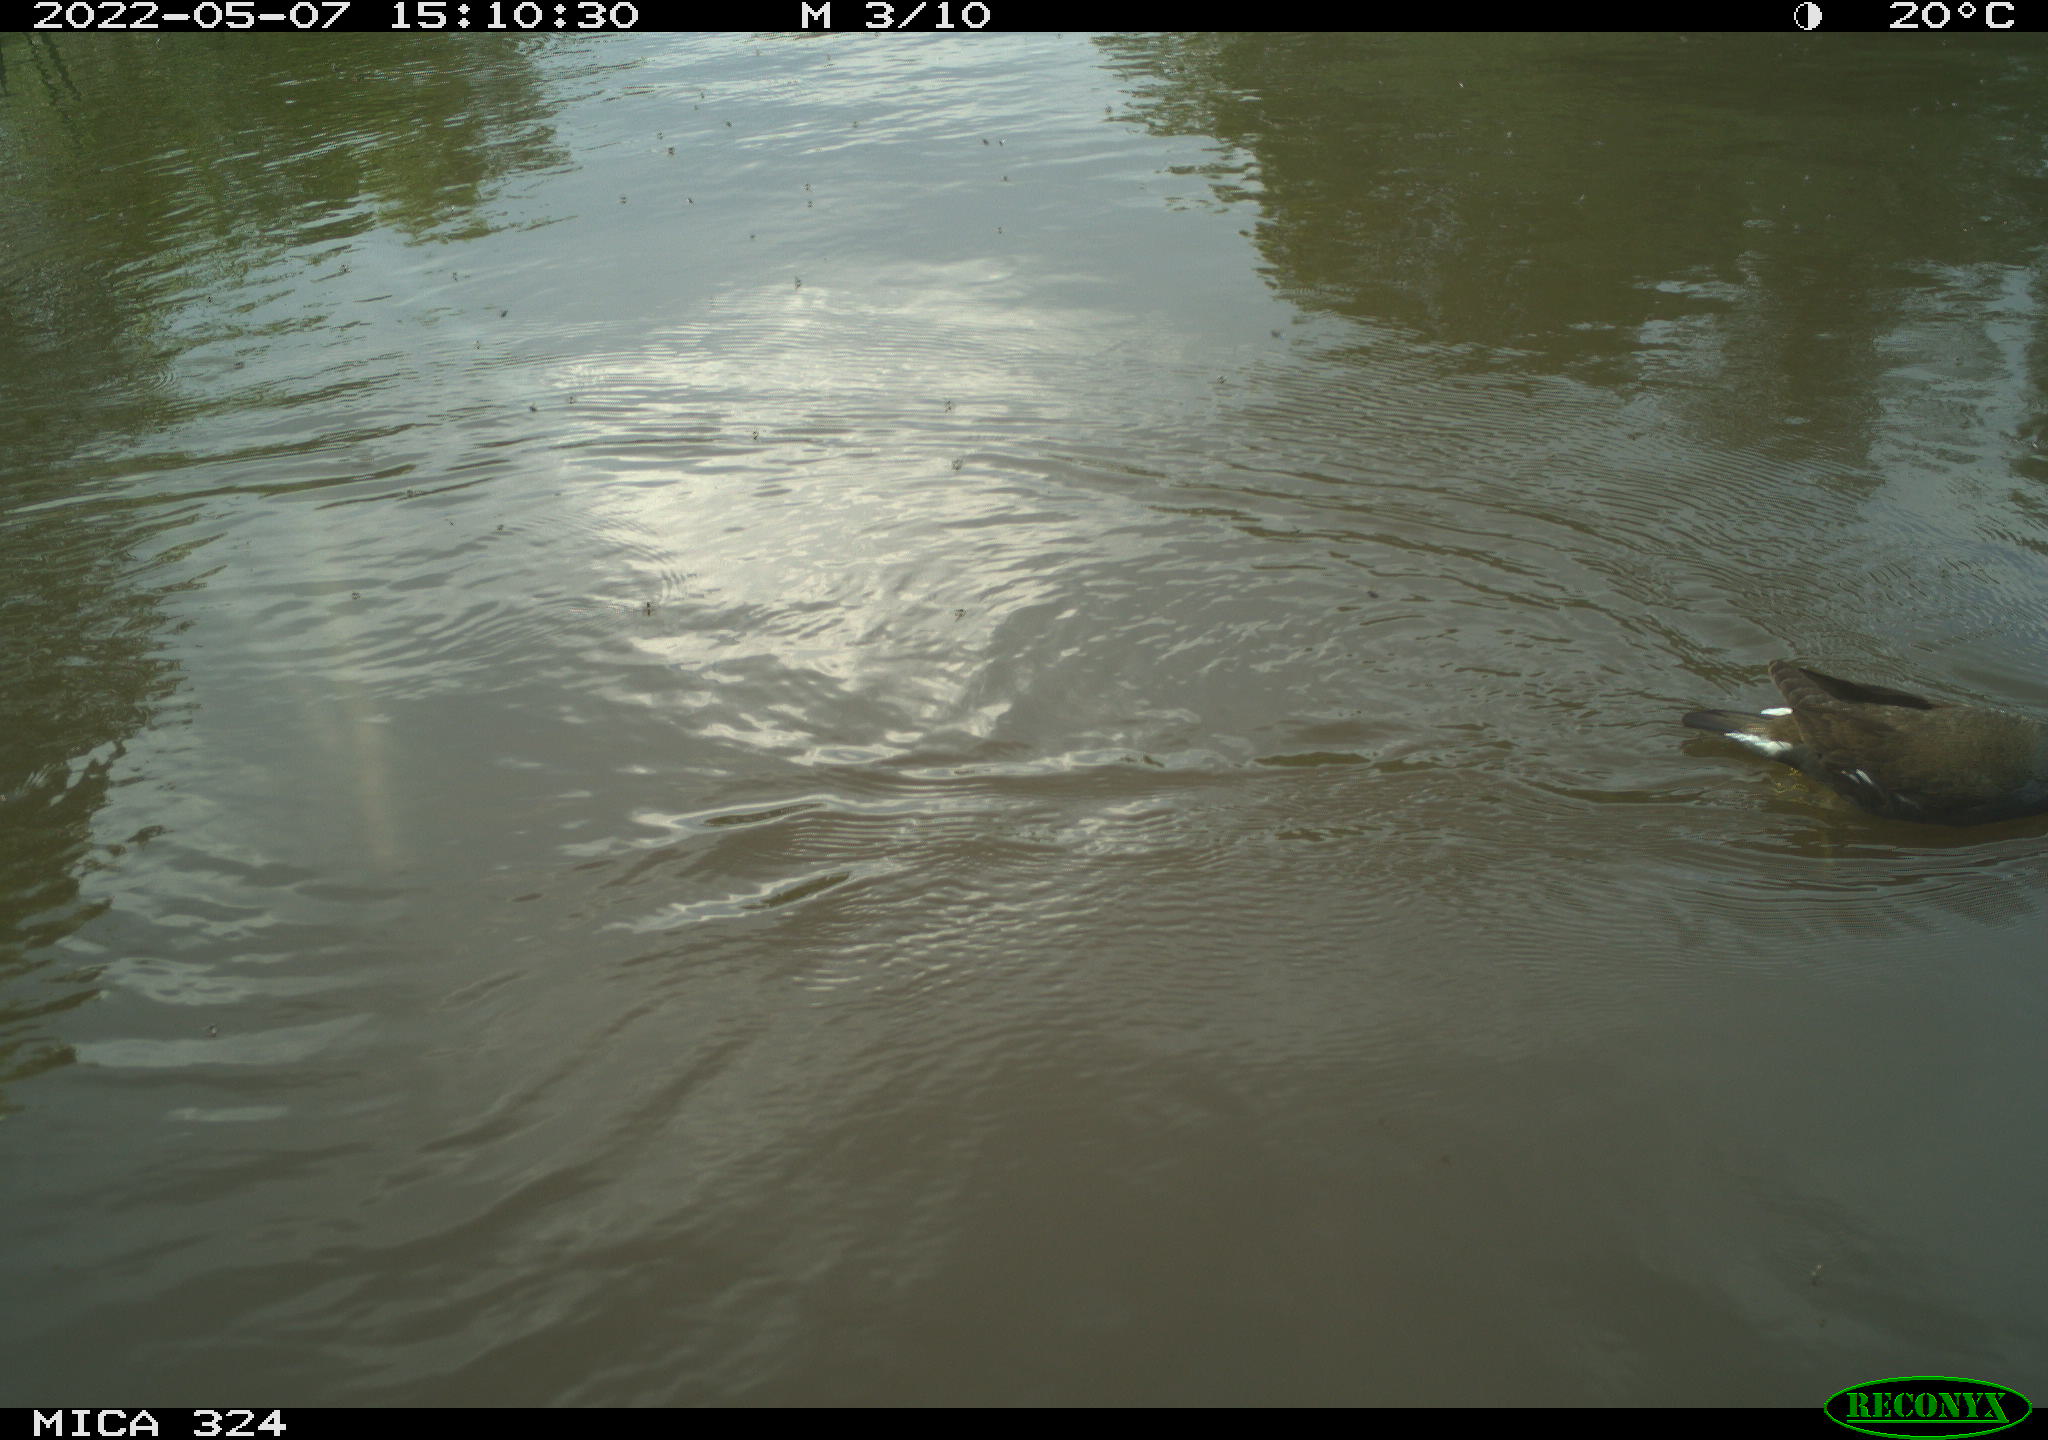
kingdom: Animalia
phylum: Chordata
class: Aves
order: Gruiformes
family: Rallidae
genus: Gallinula
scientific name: Gallinula chloropus
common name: Common moorhen
